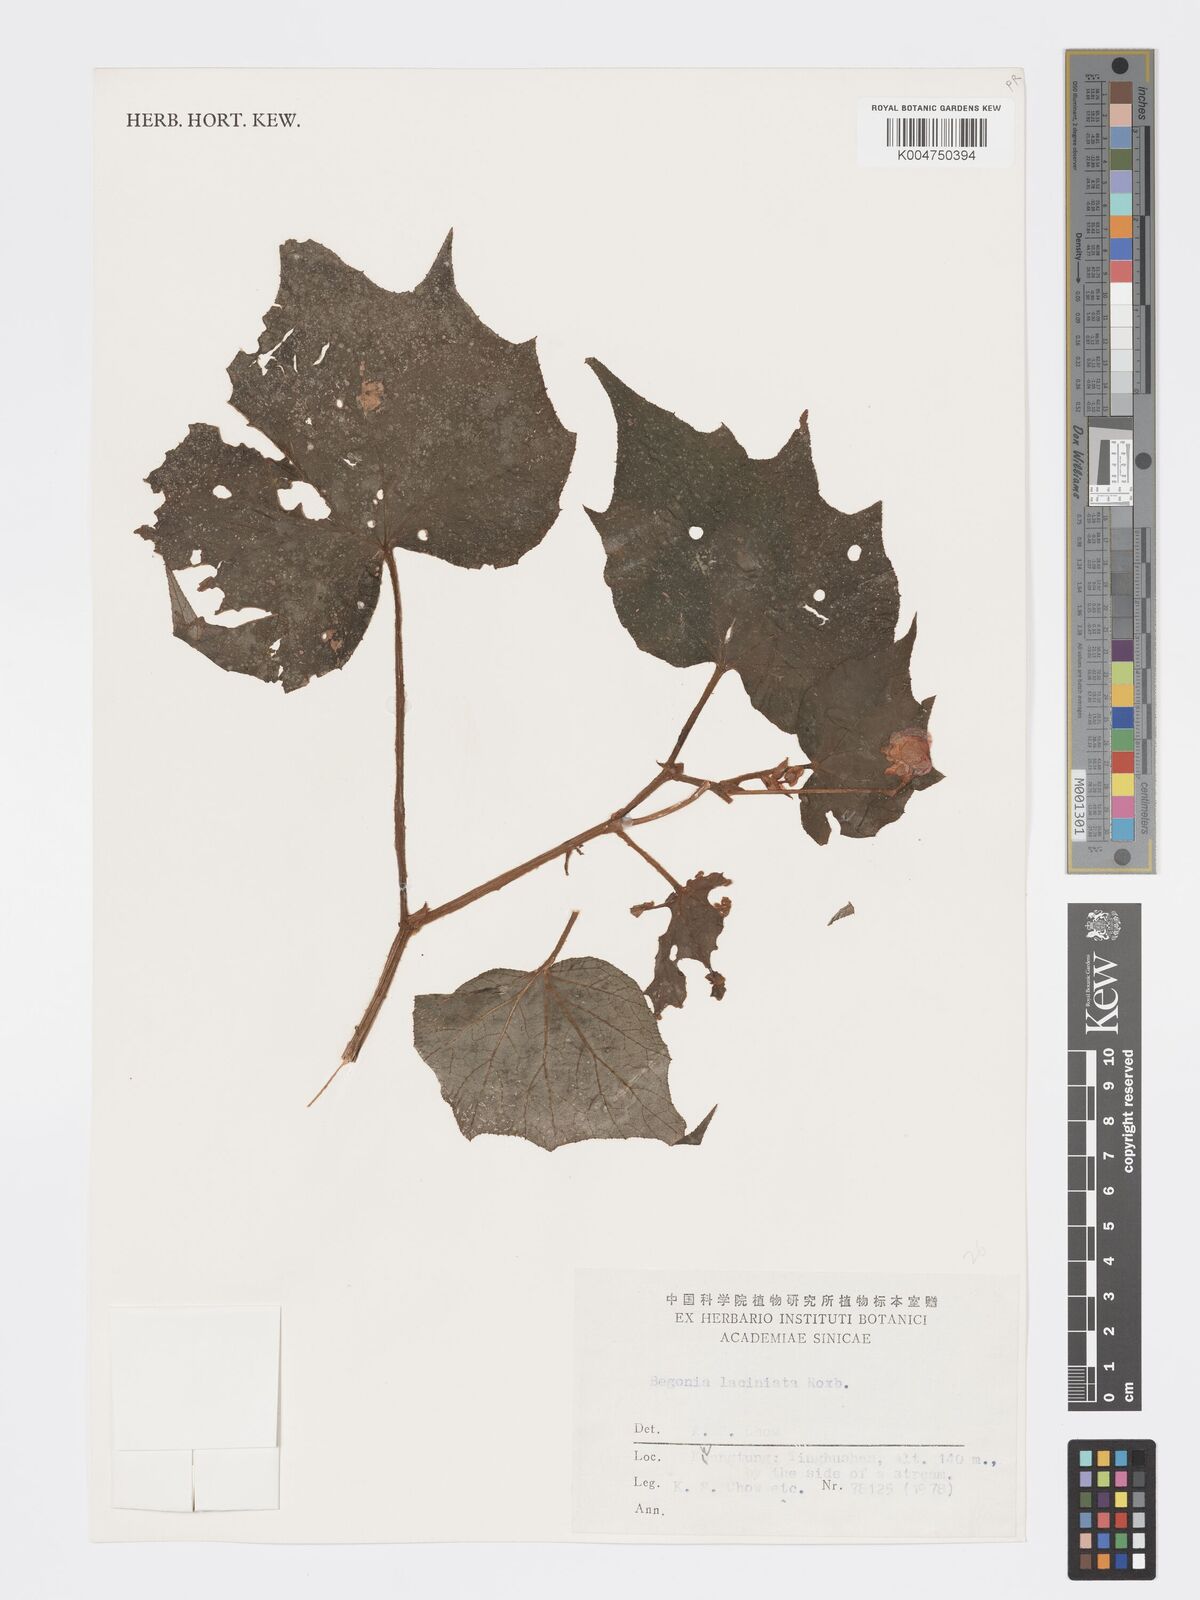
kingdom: Plantae
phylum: Tracheophyta
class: Magnoliopsida
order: Cucurbitales
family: Begoniaceae
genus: Begonia
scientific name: Begonia palmata
